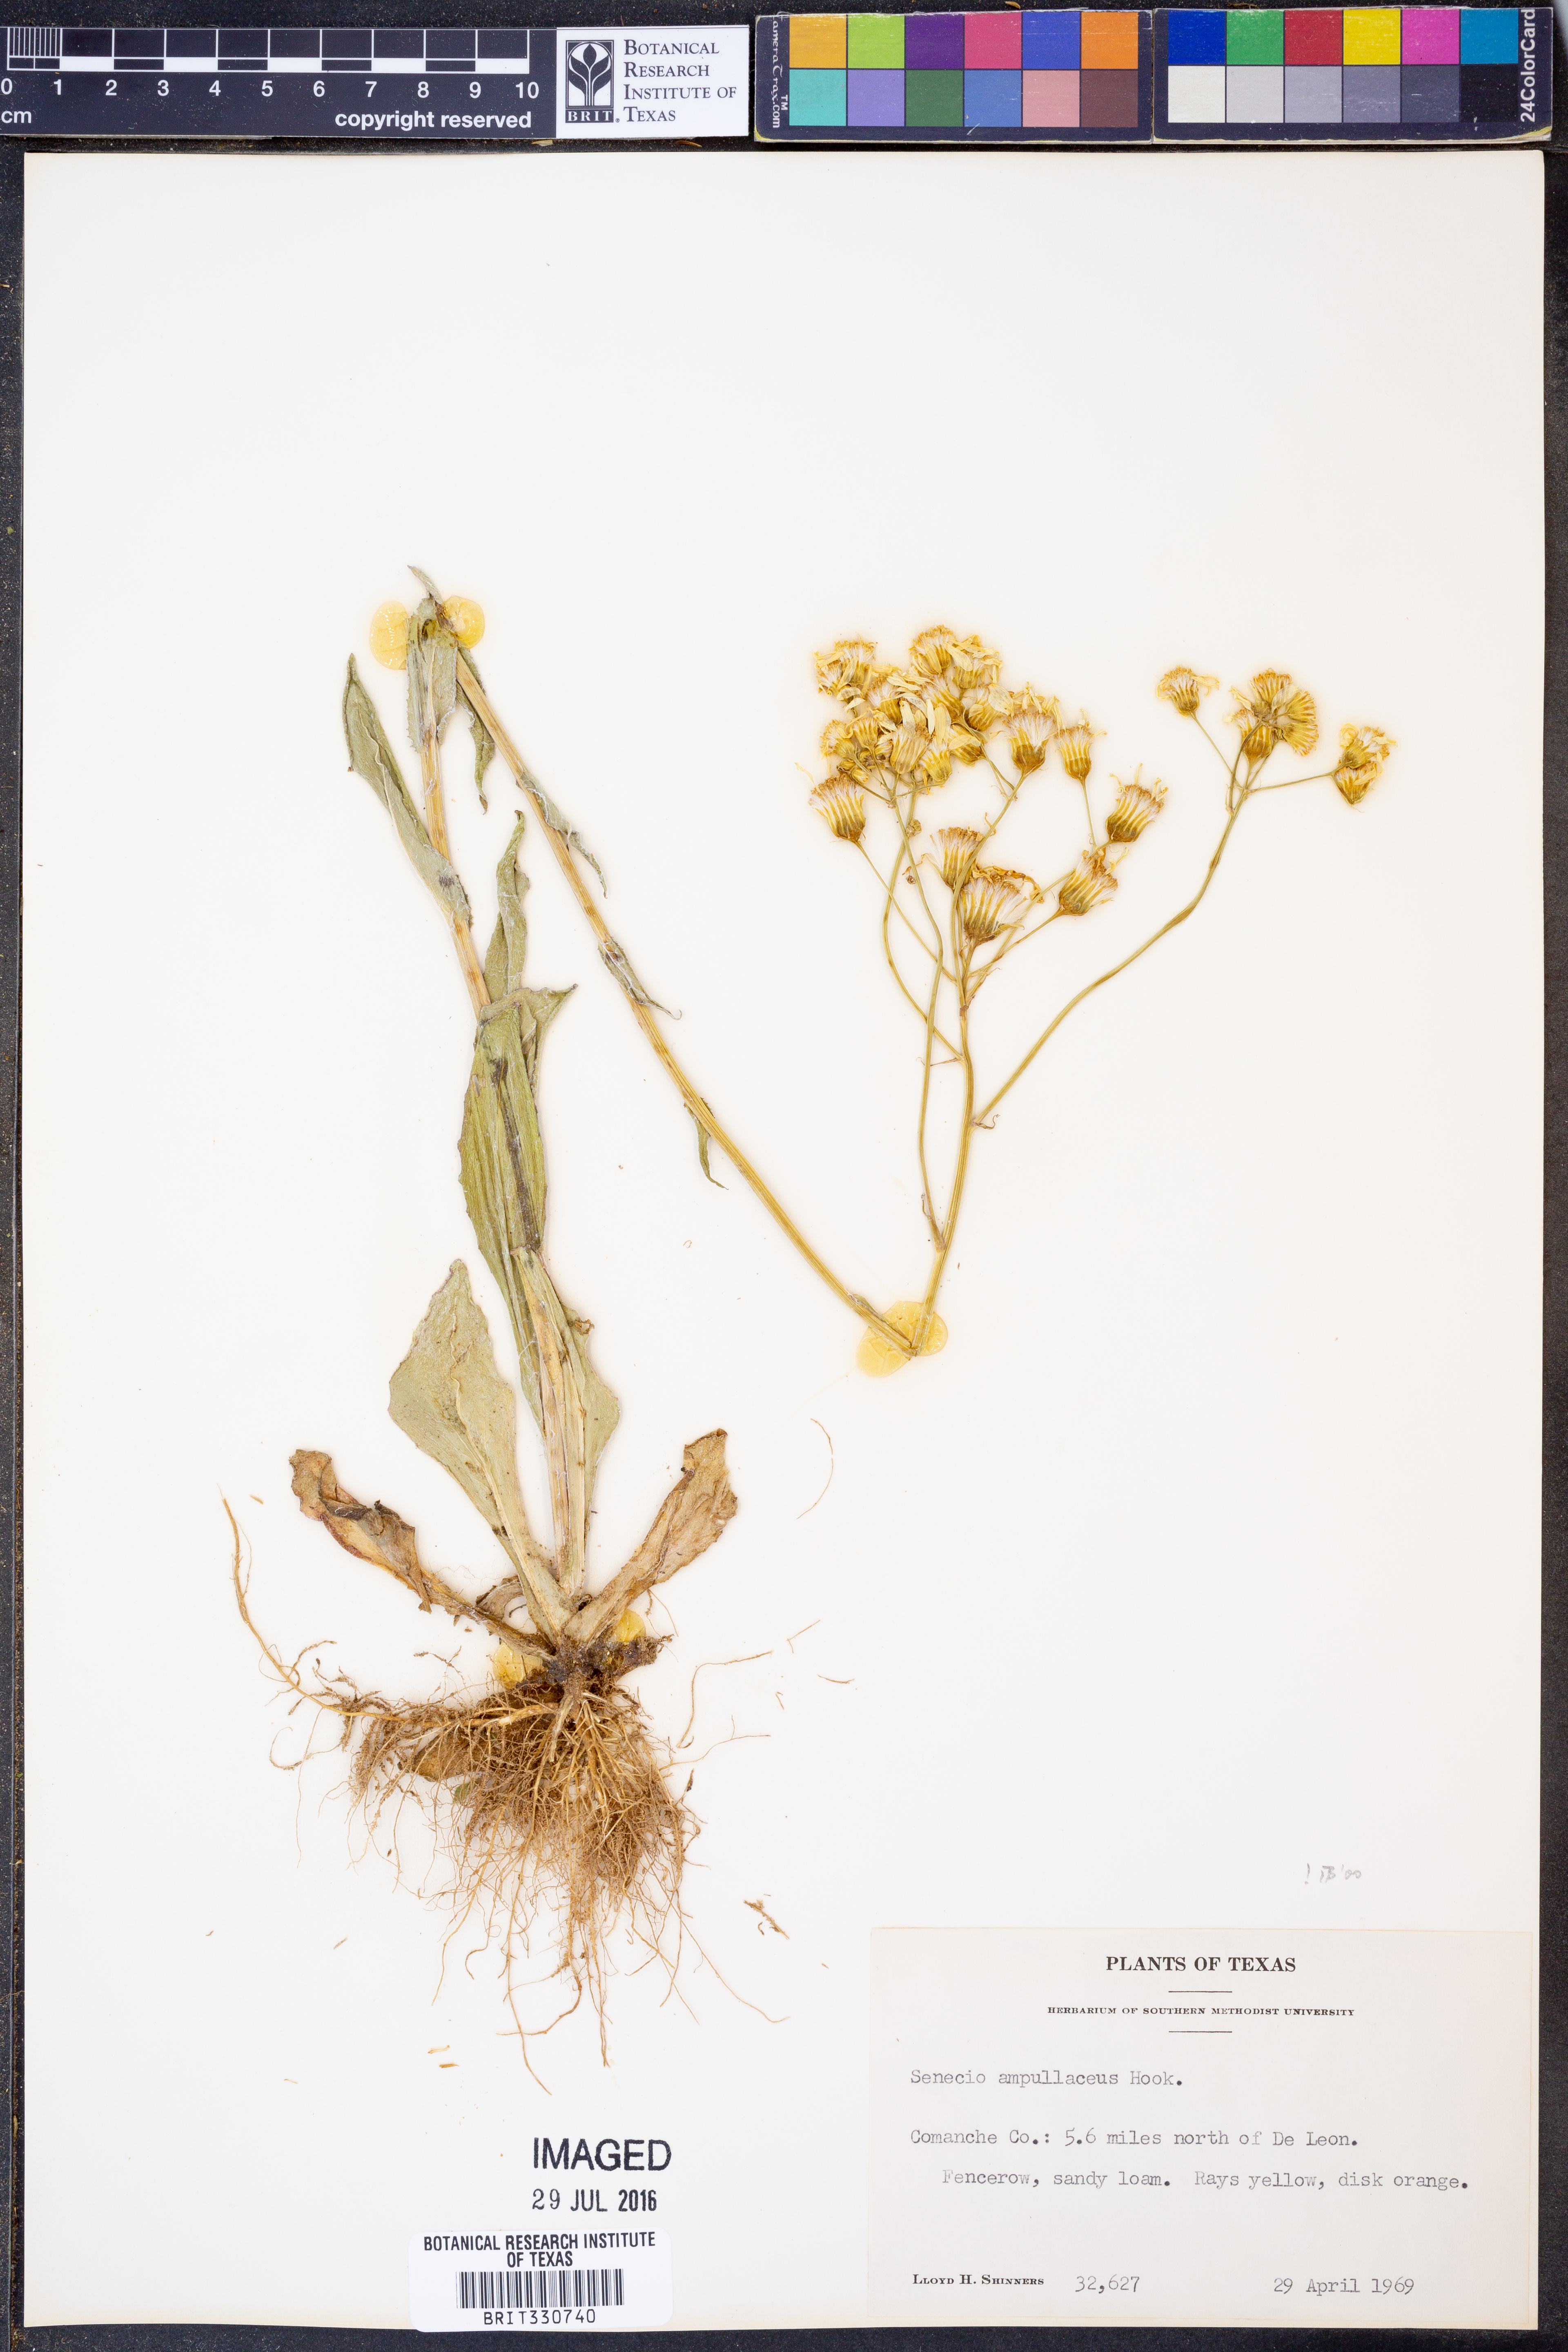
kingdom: Plantae
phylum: Tracheophyta
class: Magnoliopsida
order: Asterales
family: Asteraceae
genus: Senecio
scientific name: Senecio ampullaceus
